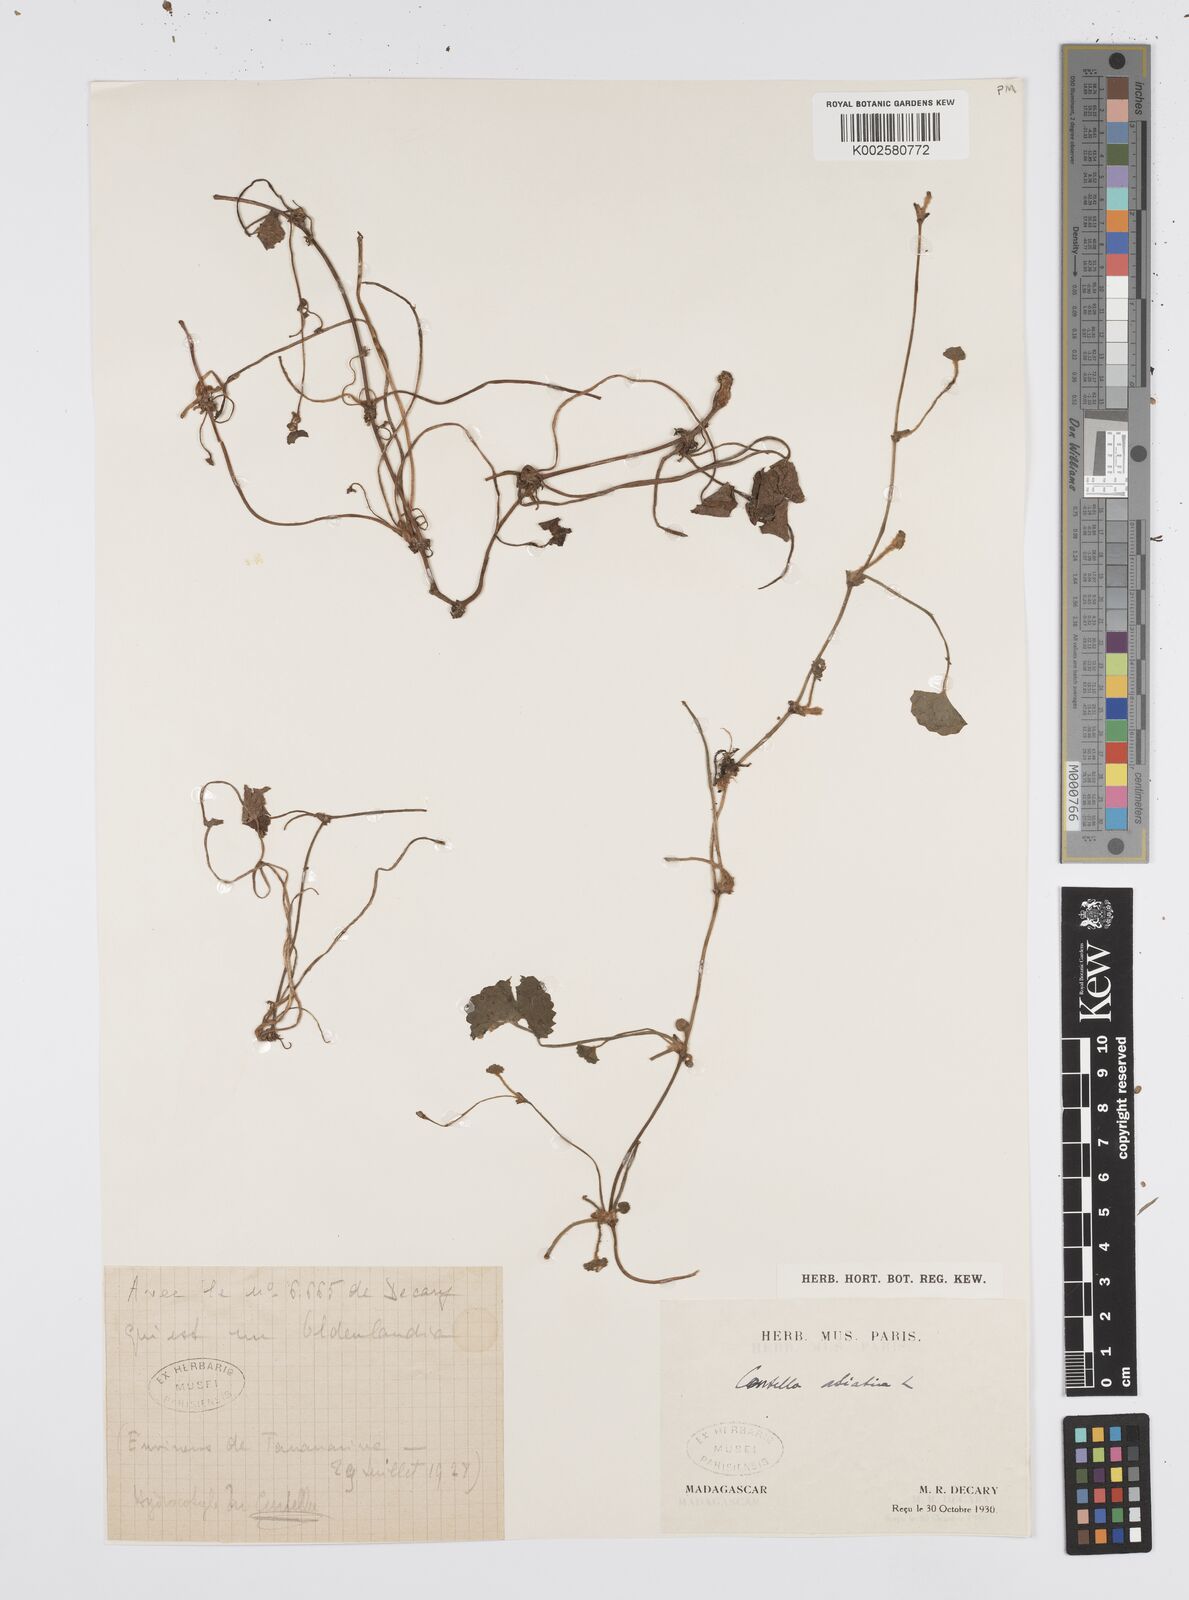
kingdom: Plantae
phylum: Tracheophyta
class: Magnoliopsida
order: Apiales
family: Apiaceae
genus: Centella
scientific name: Centella asiatica
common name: Spadeleaf
